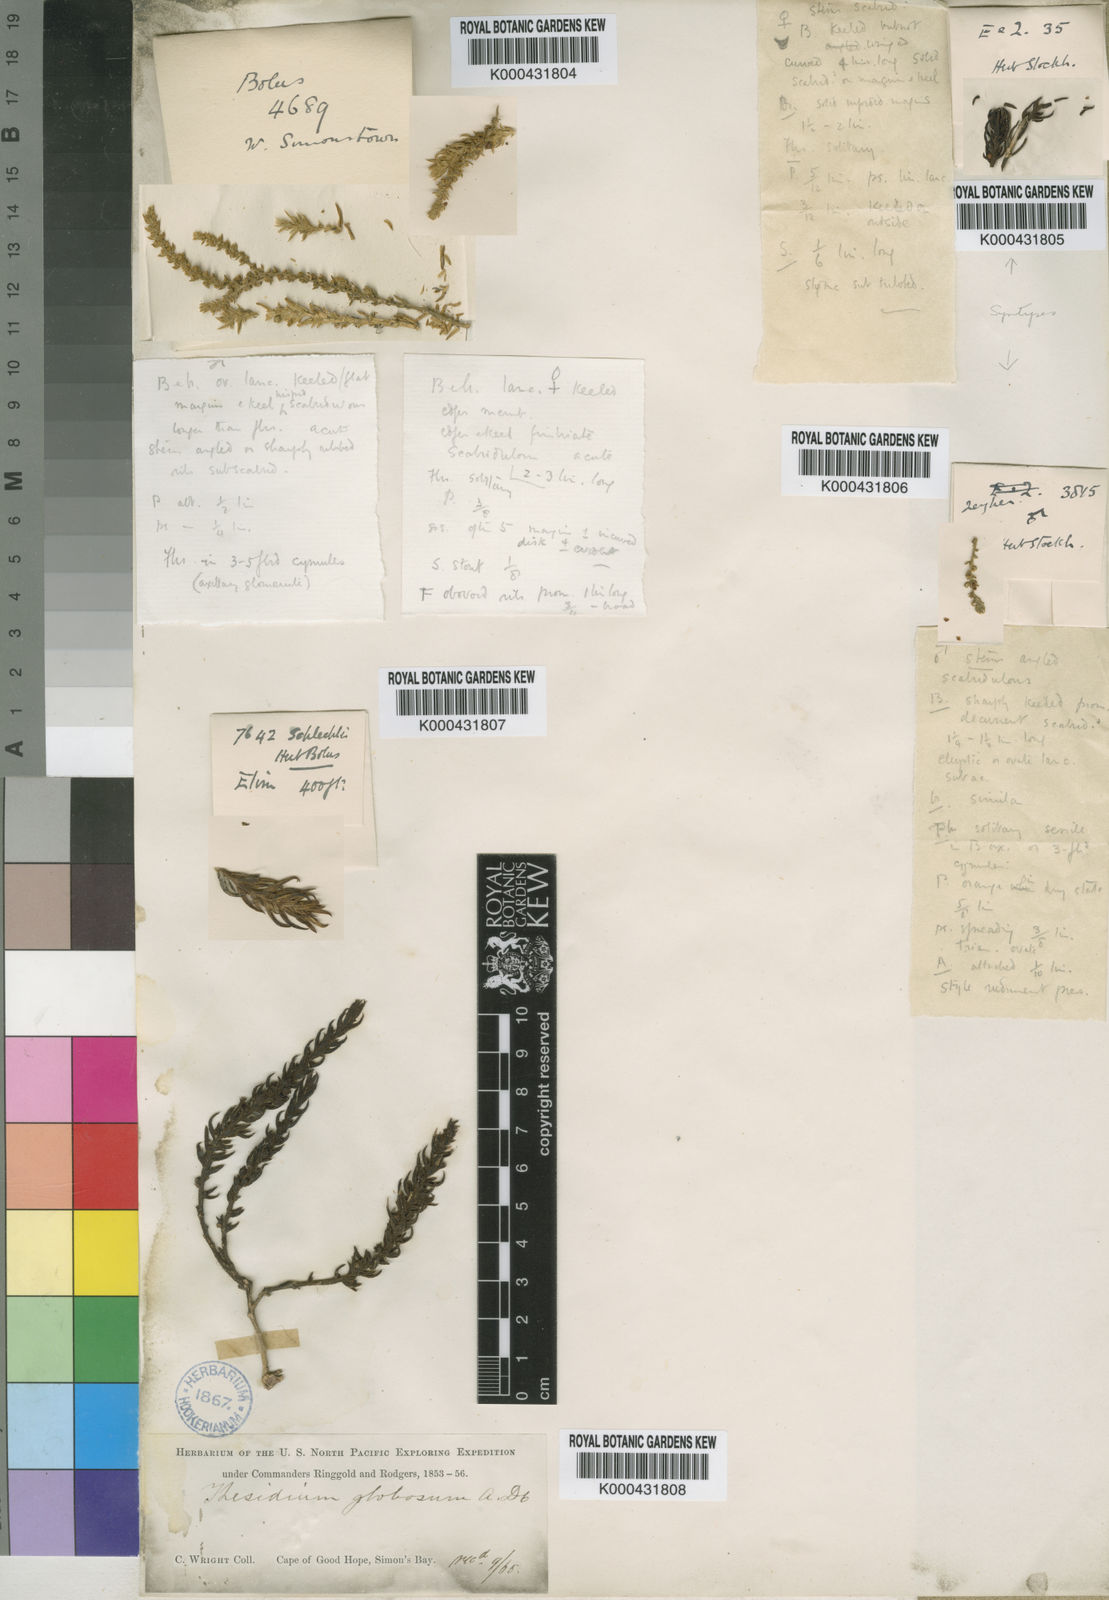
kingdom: Plantae
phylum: Tracheophyta
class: Magnoliopsida
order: Santalales
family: Thesiaceae
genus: Thesium
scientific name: Thesium hirtum
